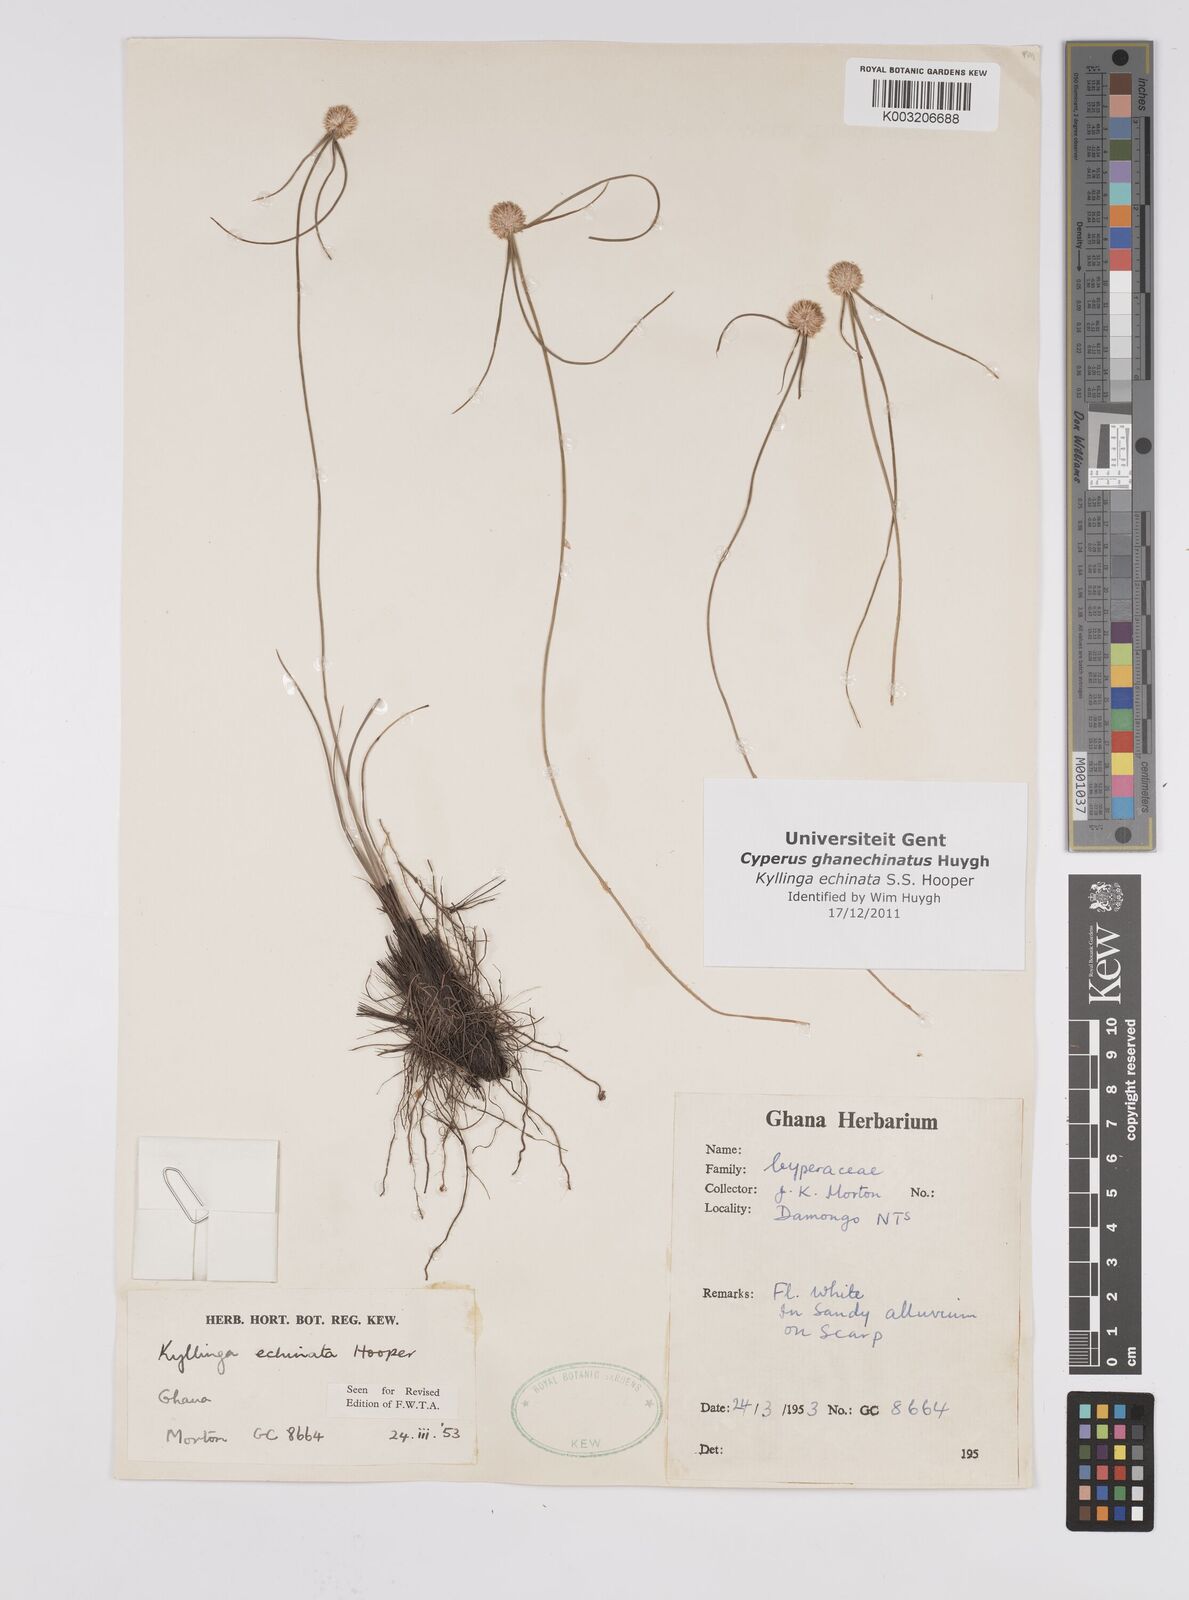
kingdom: Plantae
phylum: Tracheophyta
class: Liliopsida
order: Poales
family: Cyperaceae
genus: Cyperus
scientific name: Cyperus echinatus
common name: Teasel sedge
